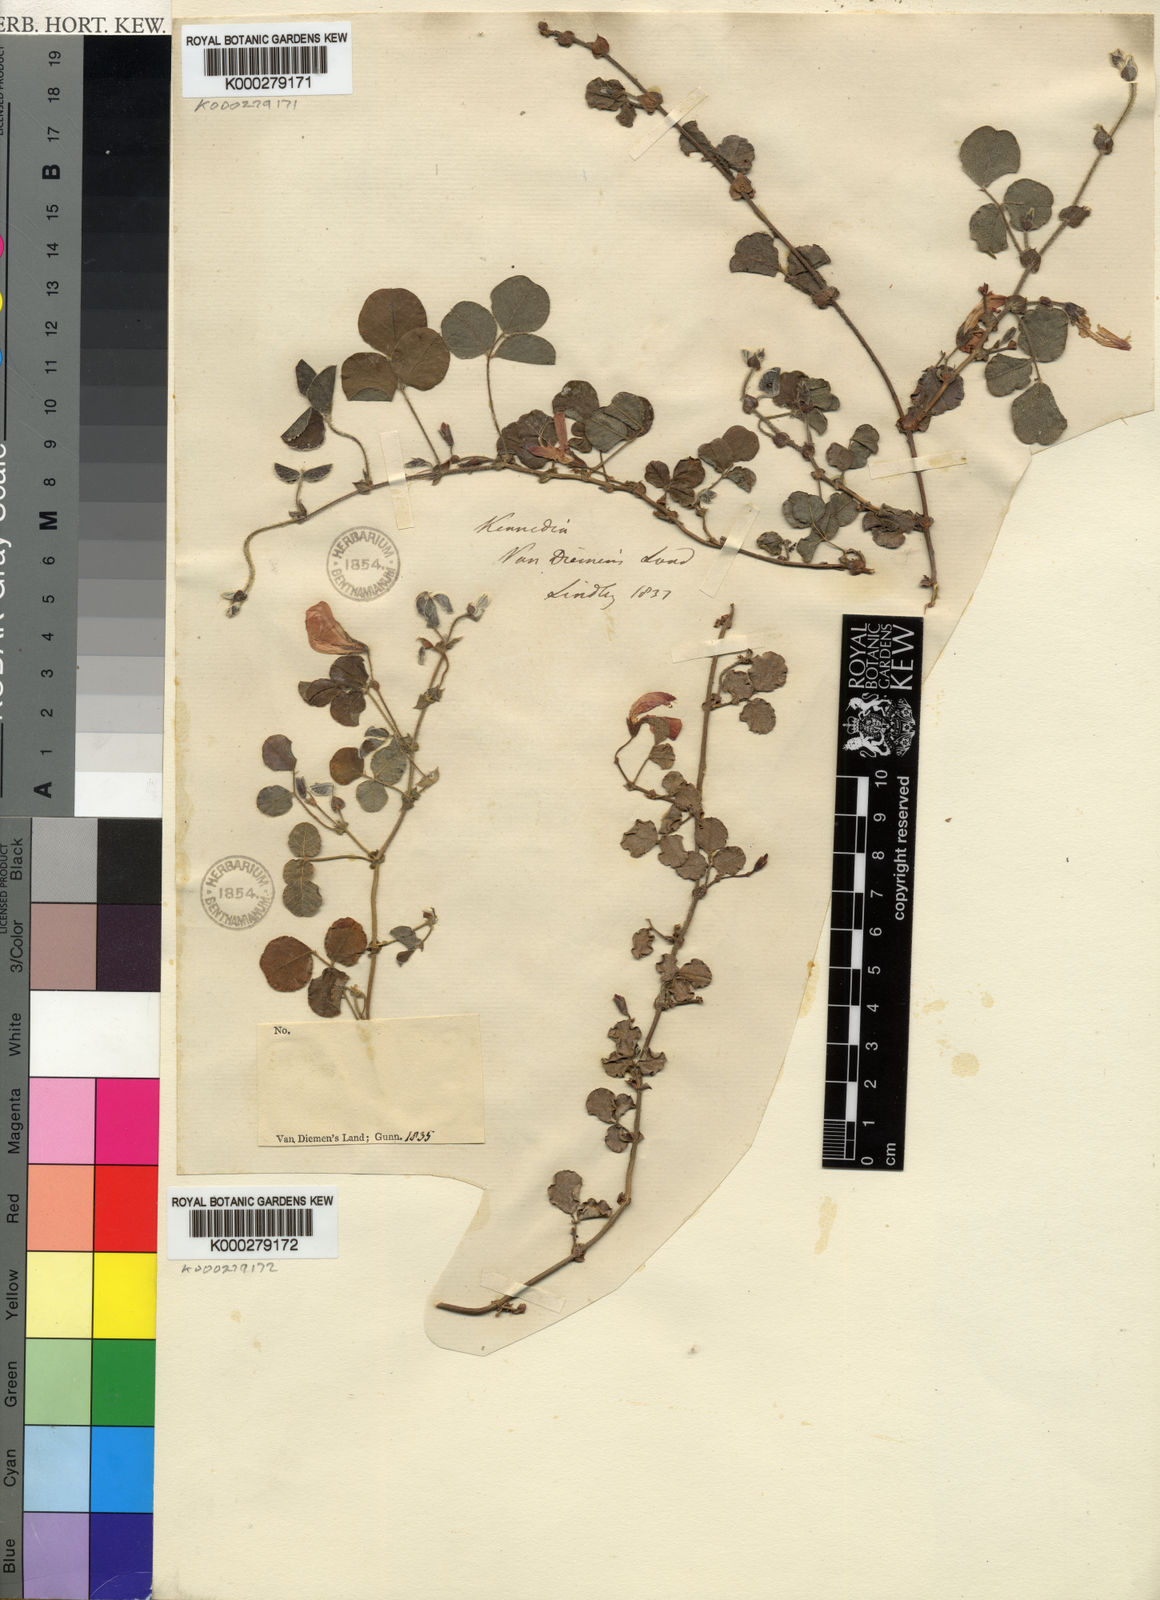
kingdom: Plantae
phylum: Tracheophyta
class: Magnoliopsida
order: Fabales
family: Fabaceae
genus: Kennedia
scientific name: Kennedia
